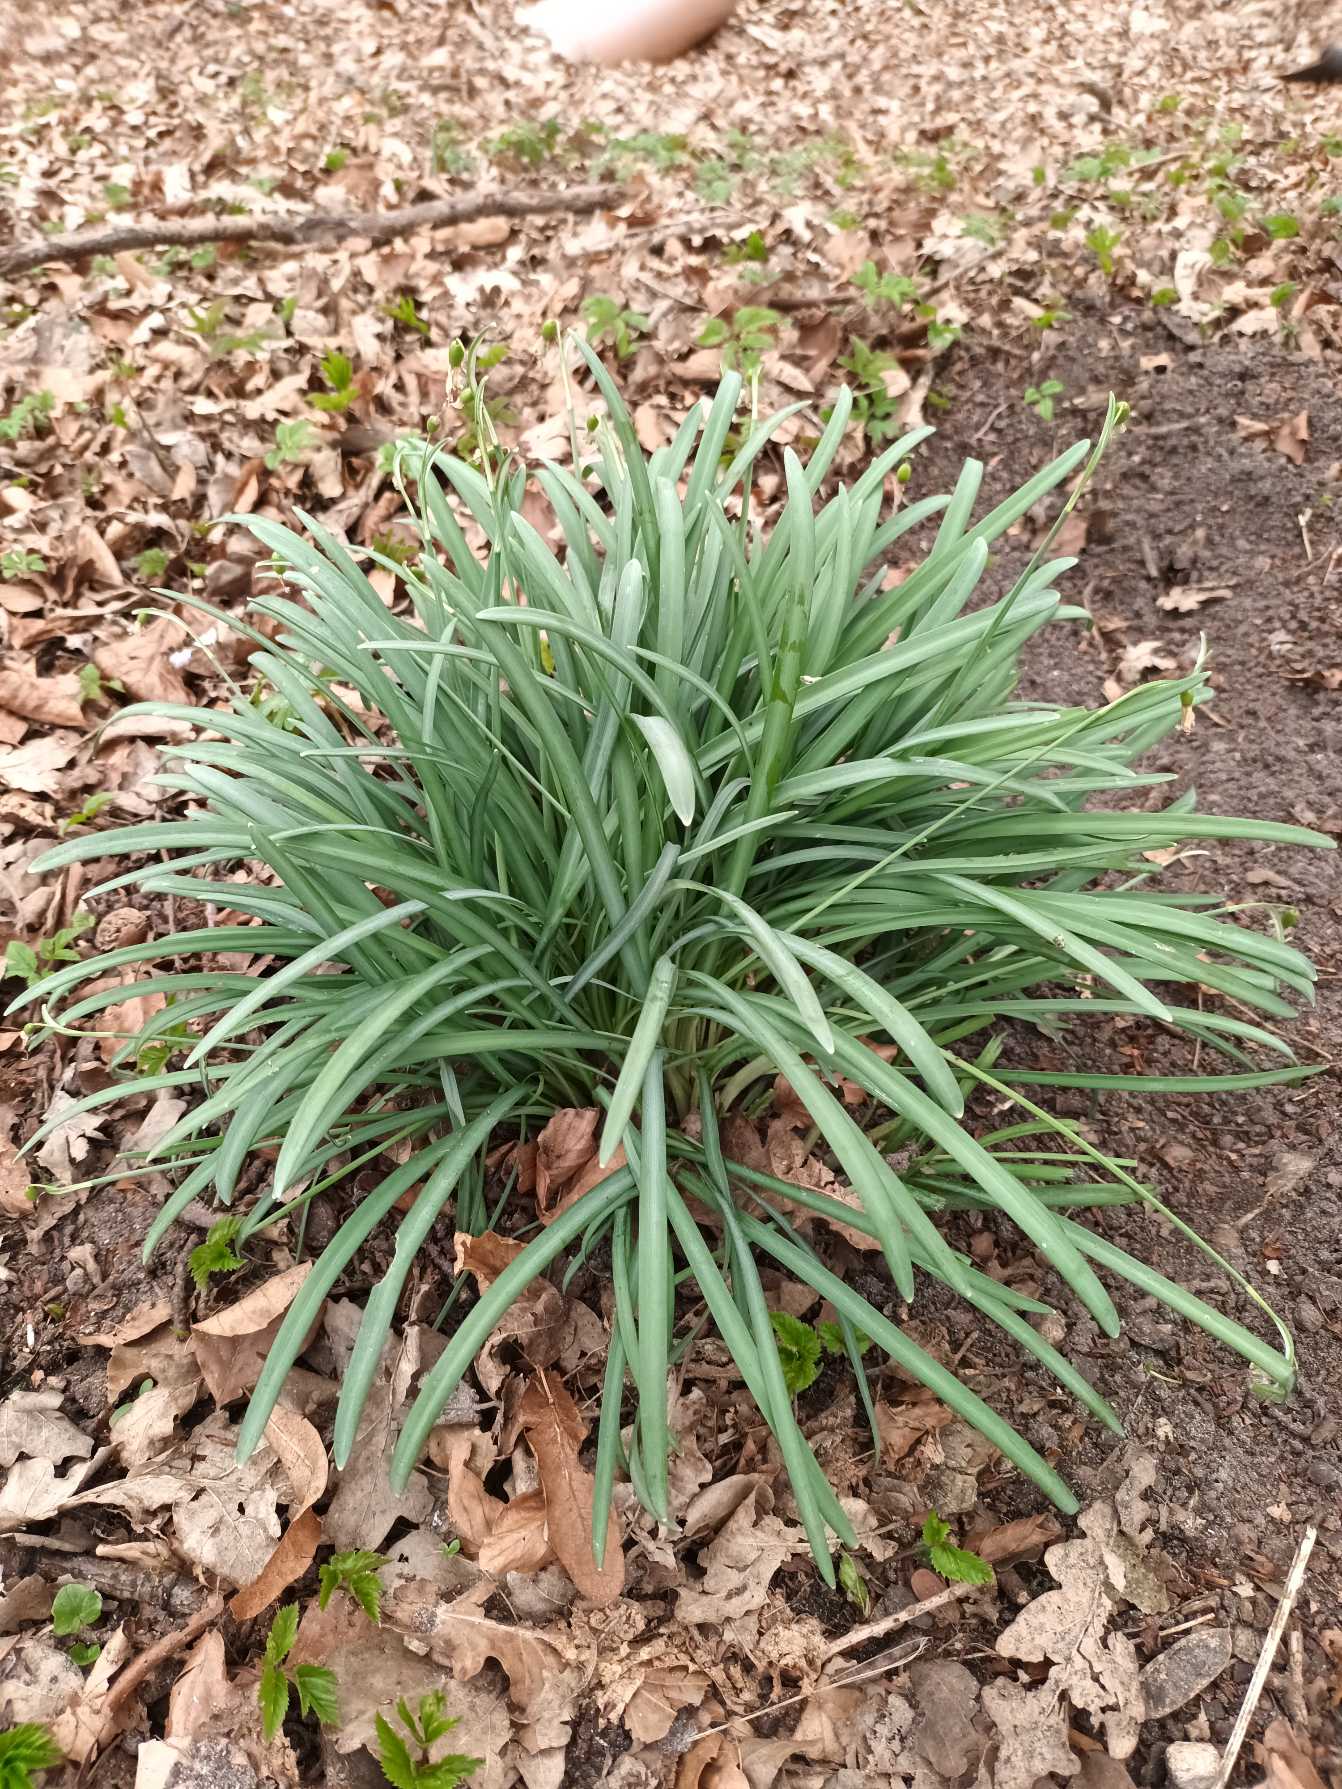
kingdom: Plantae
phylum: Tracheophyta
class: Liliopsida
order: Asparagales
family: Amaryllidaceae
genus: Galanthus
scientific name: Galanthus nivalis
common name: Vintergæk
